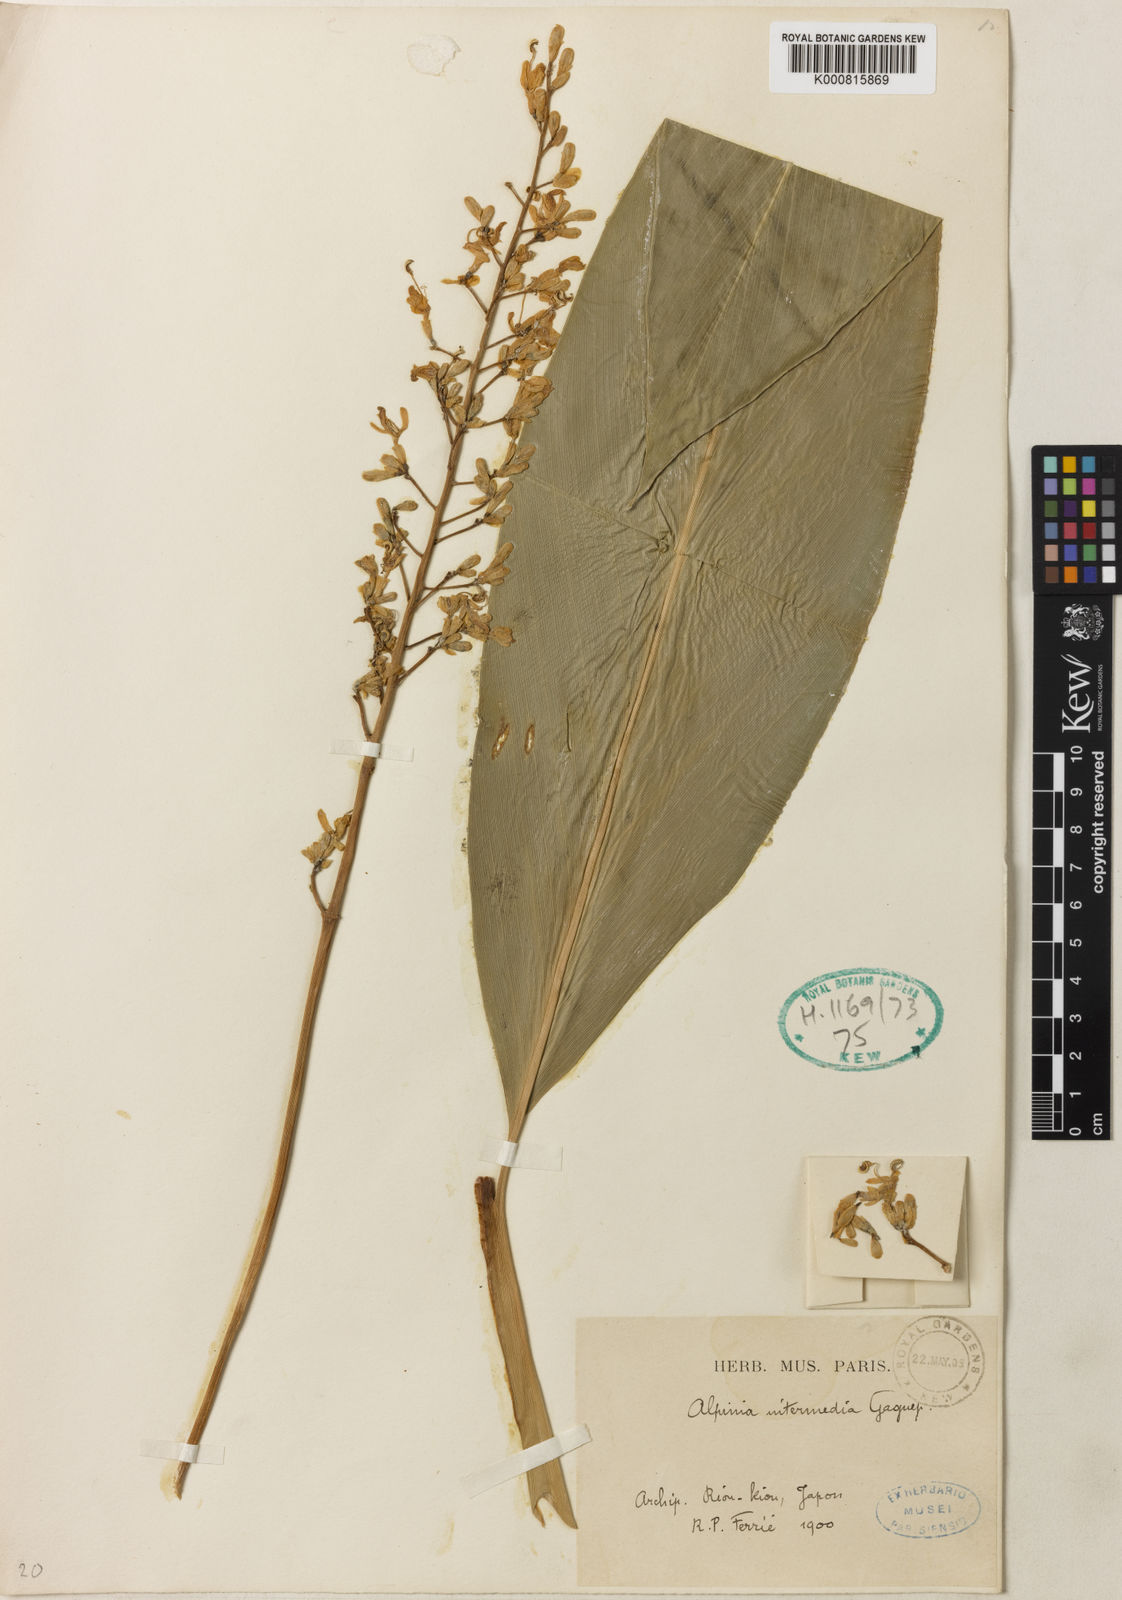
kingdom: Plantae
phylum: Tracheophyta
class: Liliopsida
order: Zingiberales
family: Zingiberaceae
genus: Alpinia
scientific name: Alpinia intermedia
